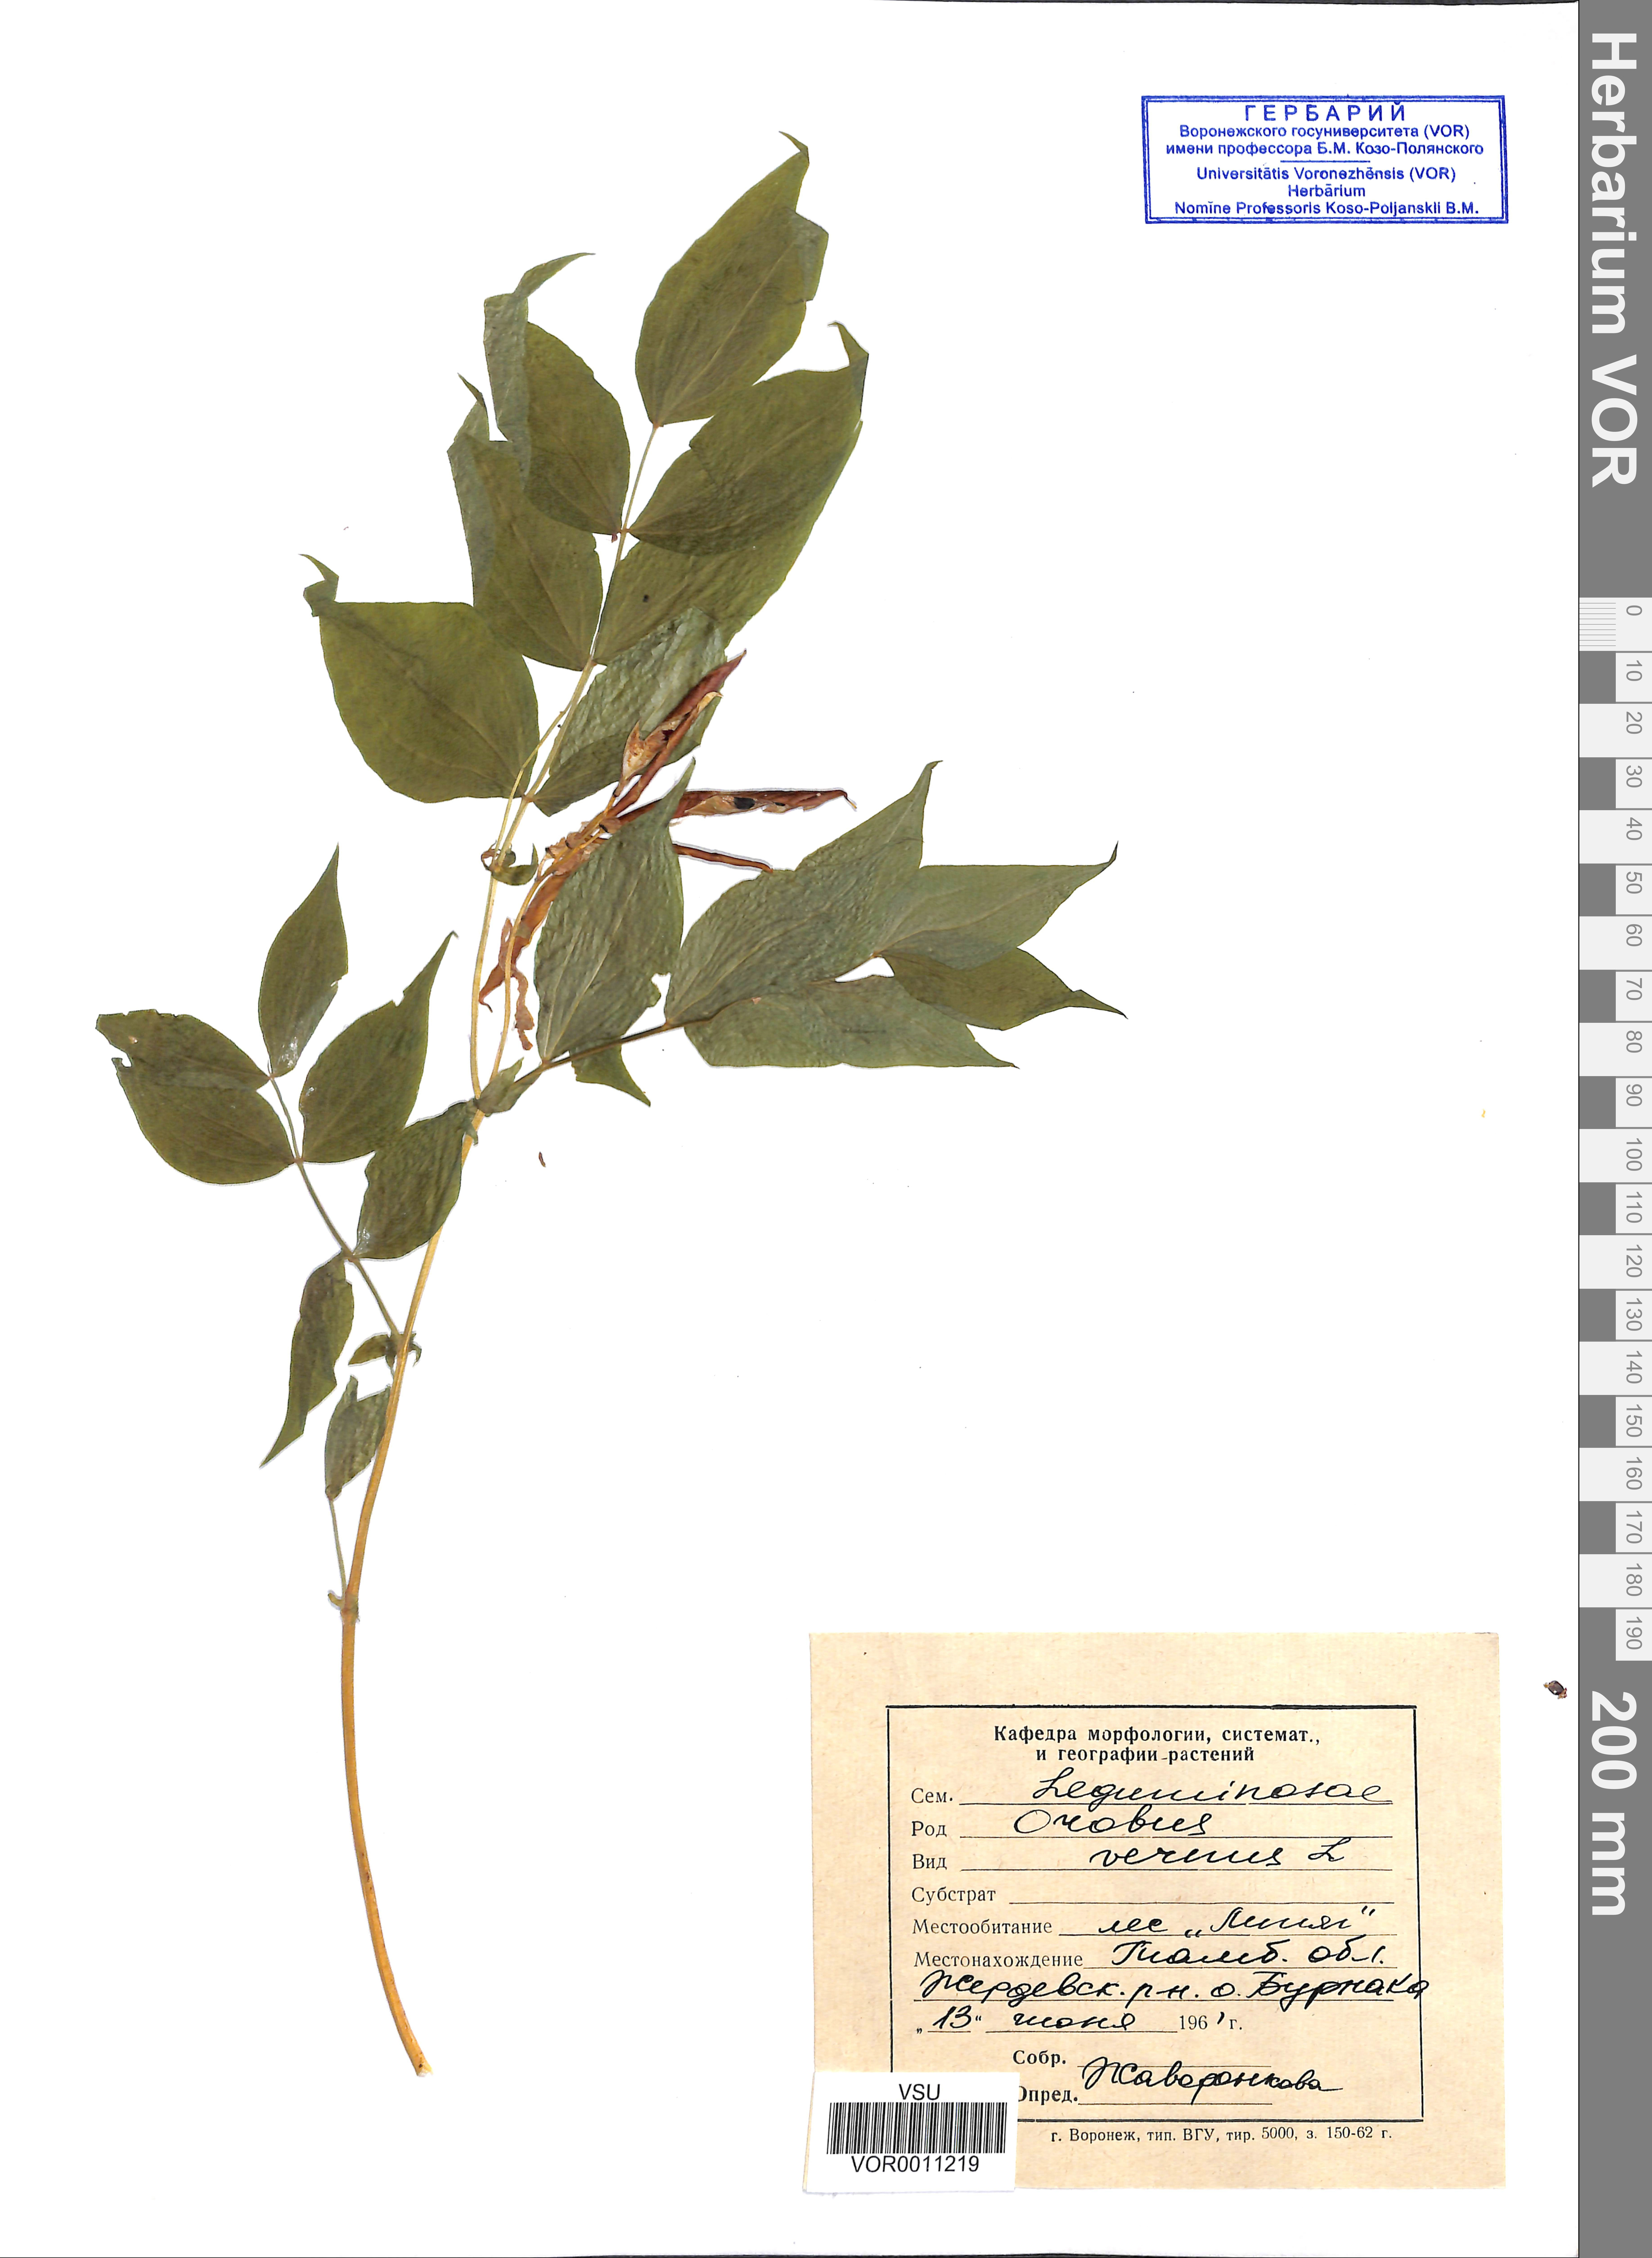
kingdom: Plantae
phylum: Tracheophyta
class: Magnoliopsida
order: Fabales
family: Fabaceae
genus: Lathyrus
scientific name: Lathyrus vernus
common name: Spring pea
